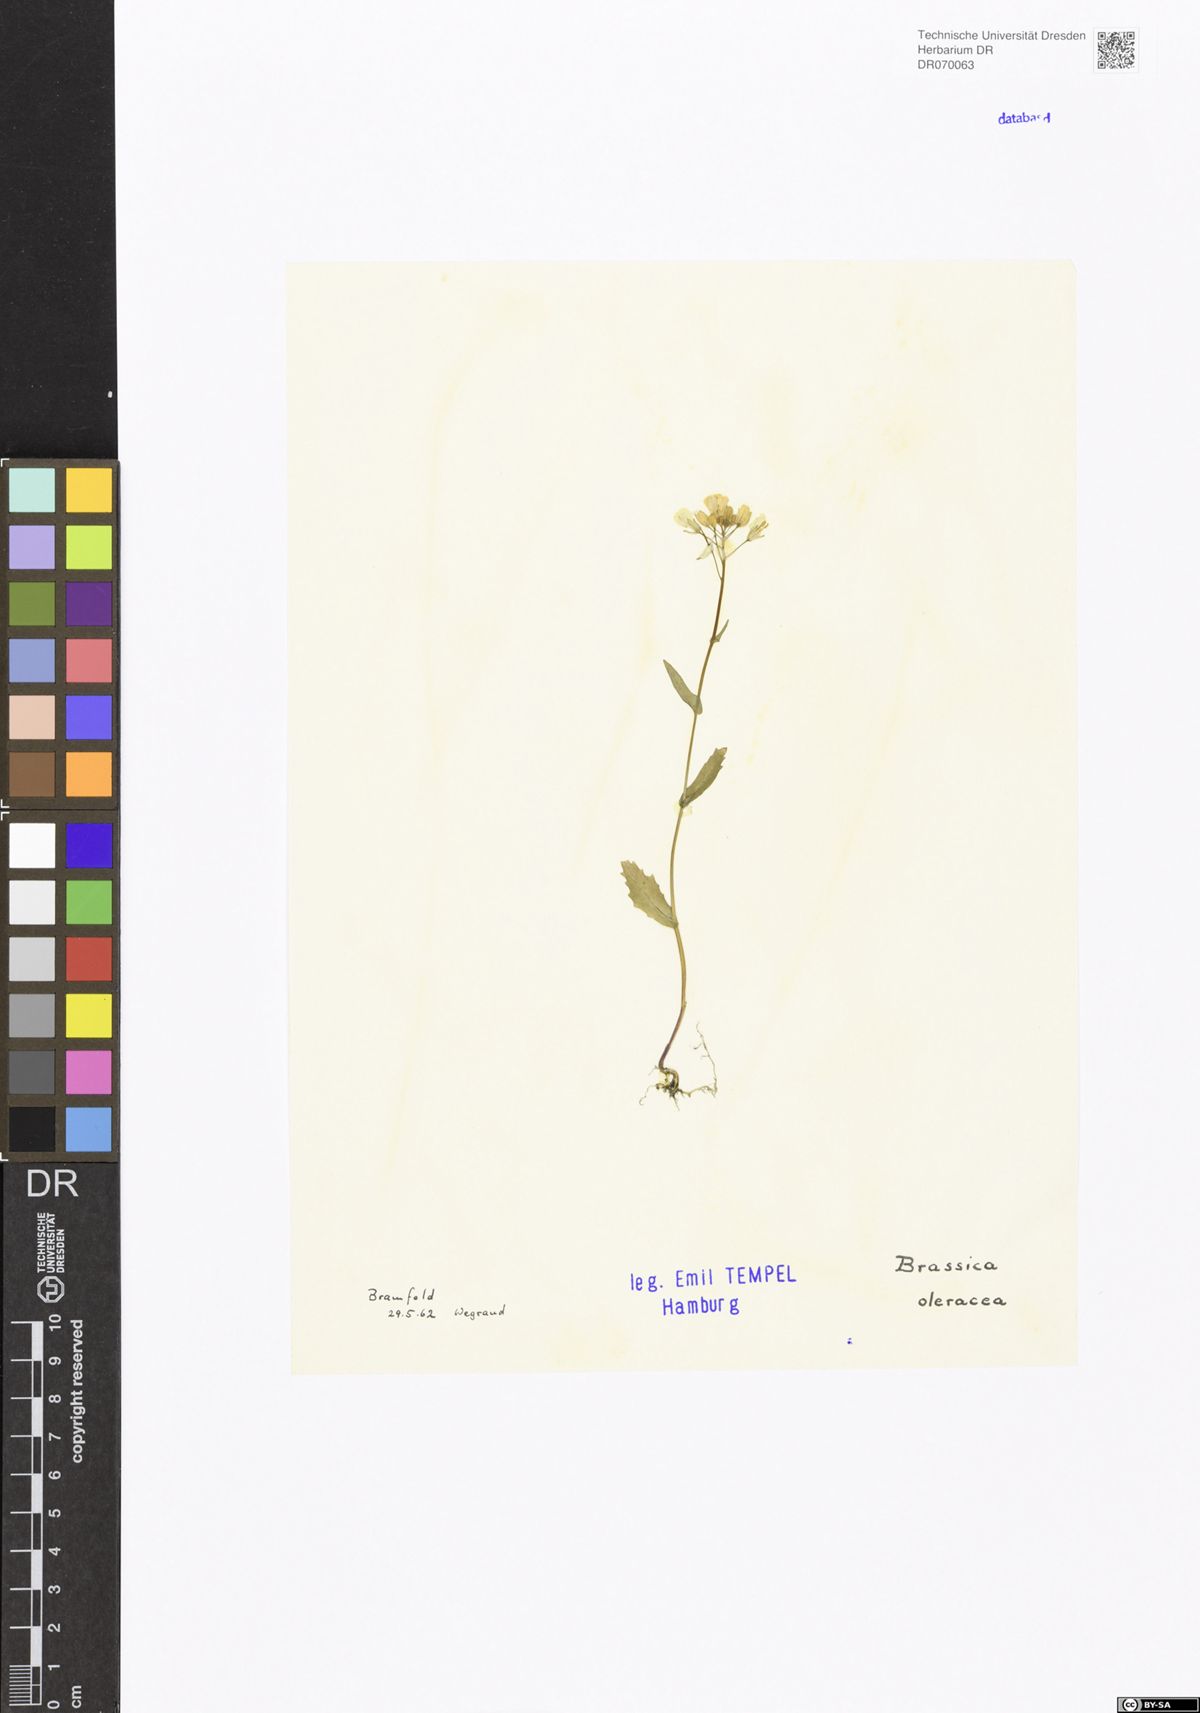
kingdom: Plantae
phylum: Tracheophyta
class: Magnoliopsida
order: Brassicales
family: Brassicaceae
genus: Brassica
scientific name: Brassica oleracea
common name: Cabbage
